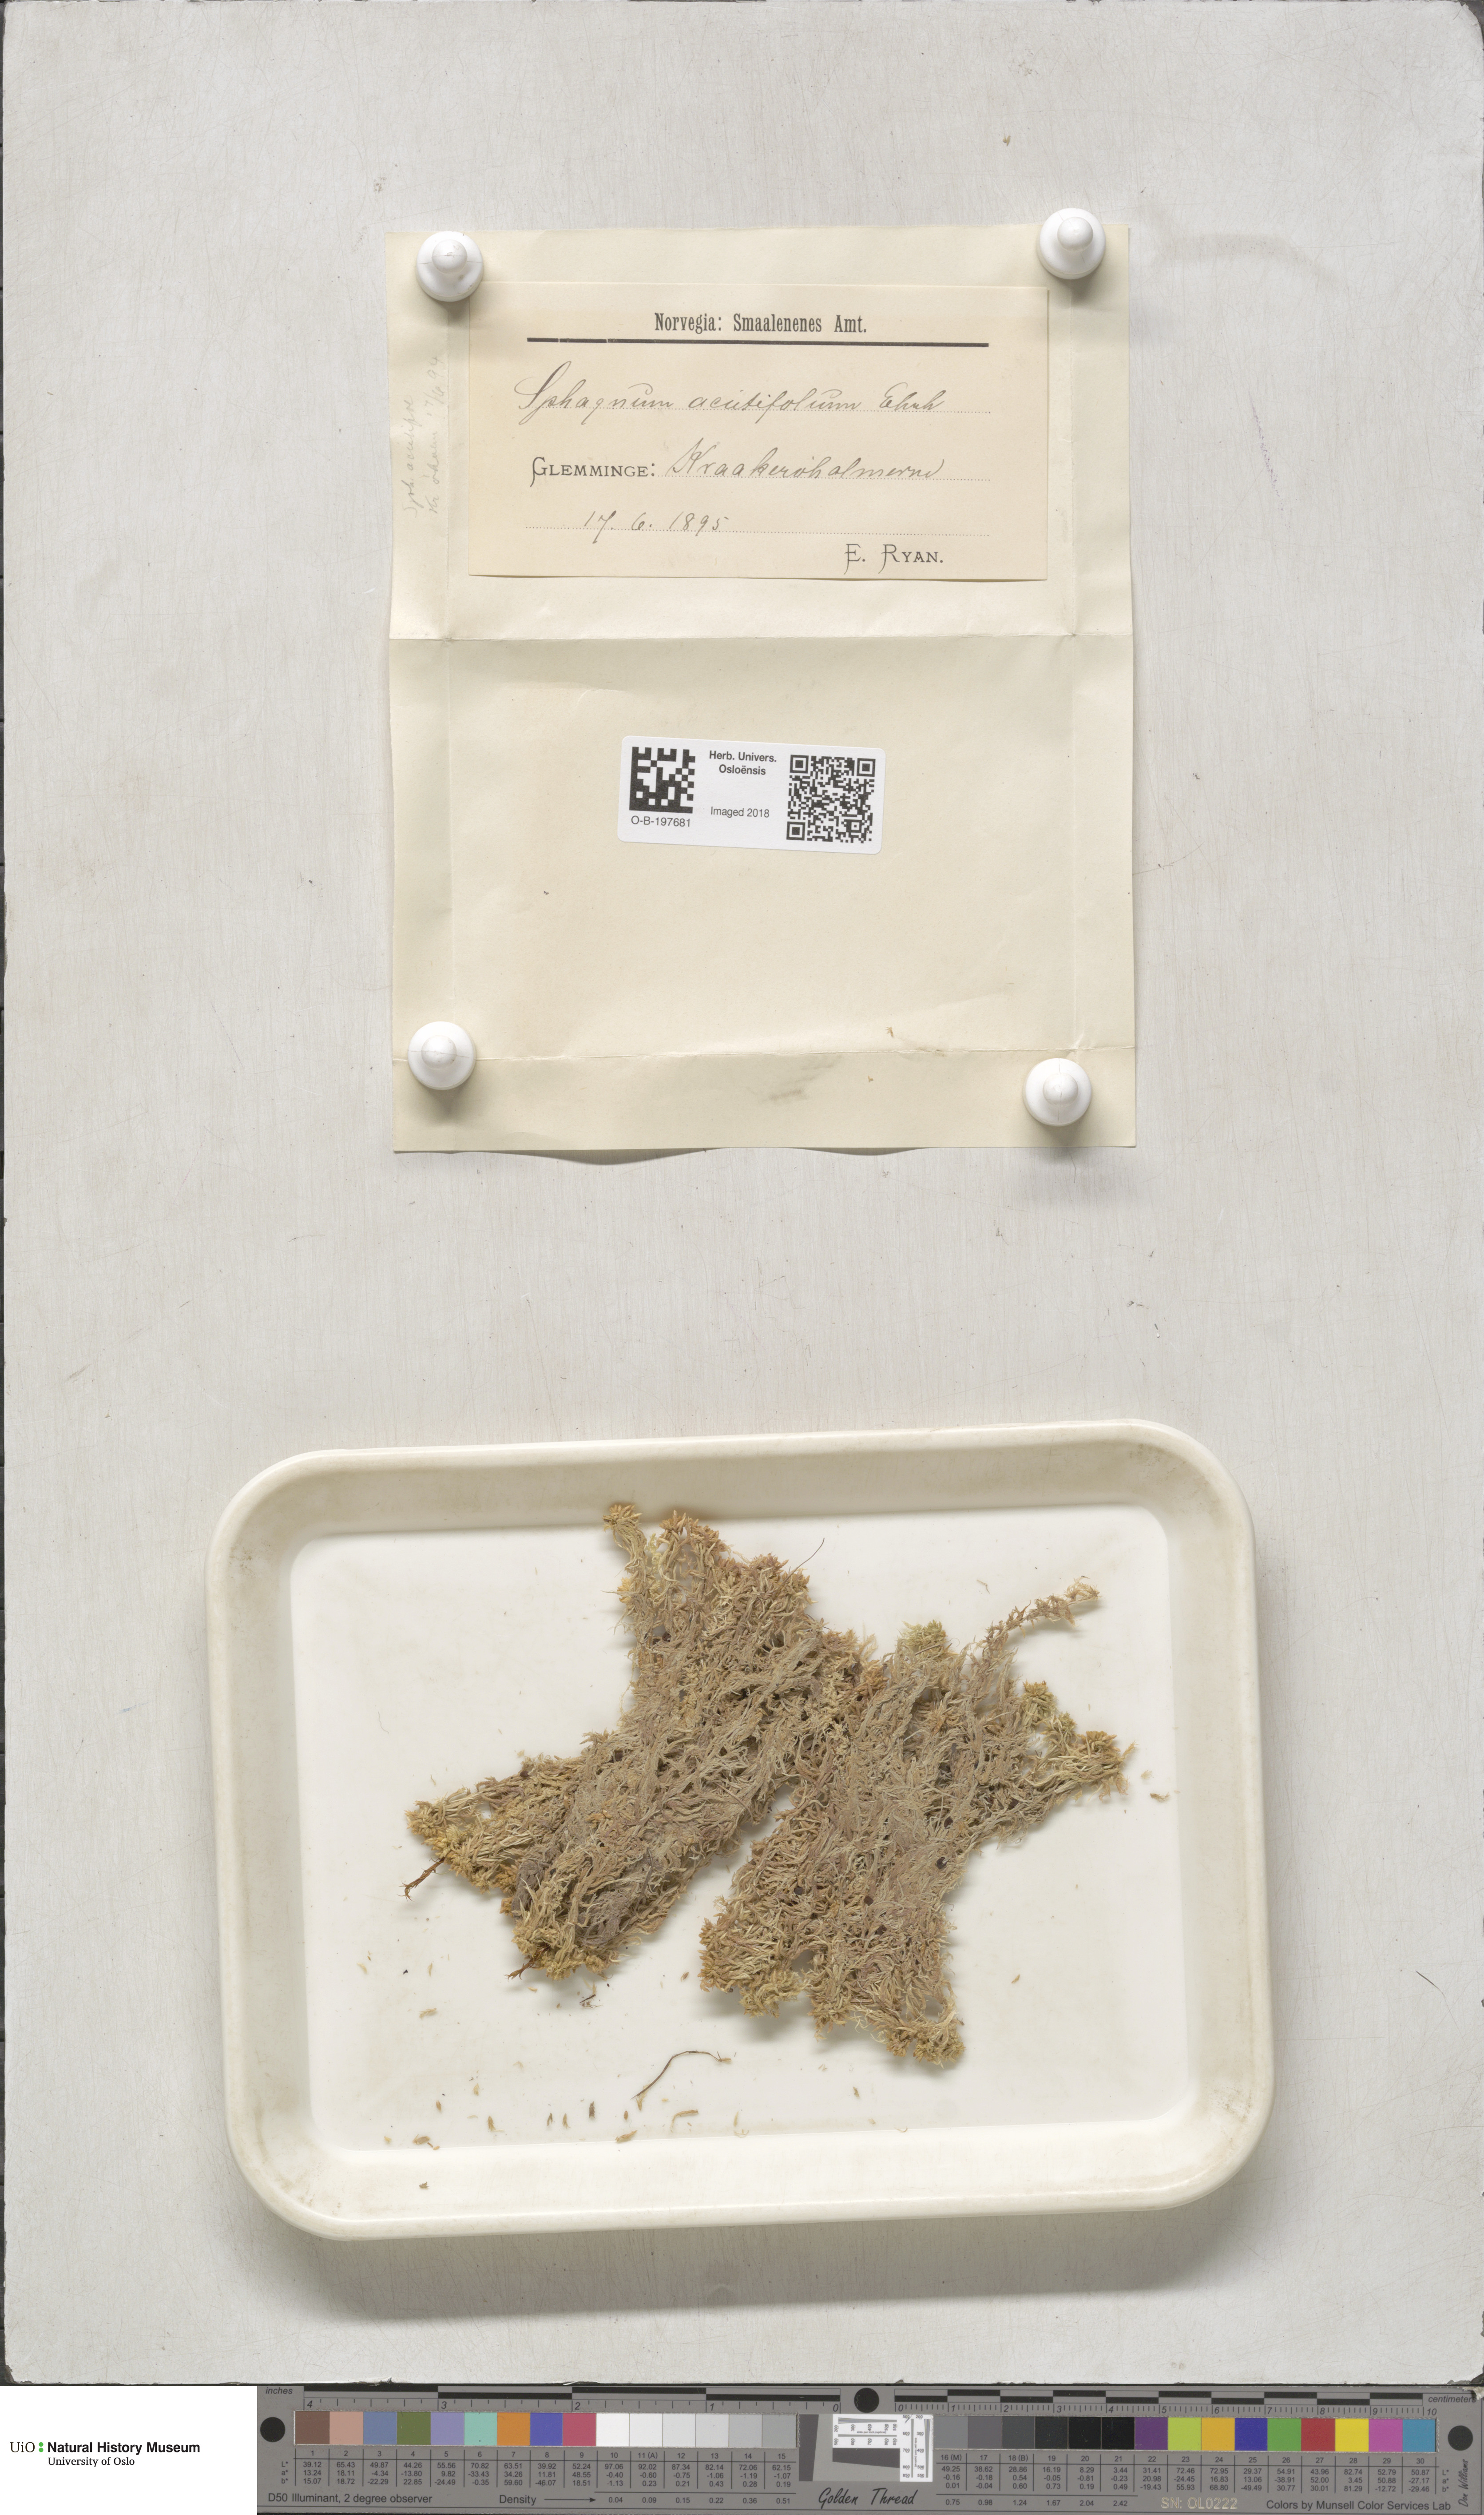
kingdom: Plantae
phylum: Bryophyta
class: Sphagnopsida
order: Sphagnales
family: Sphagnaceae
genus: Sphagnum
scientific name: Sphagnum capillifolium
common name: Small red peat moss
